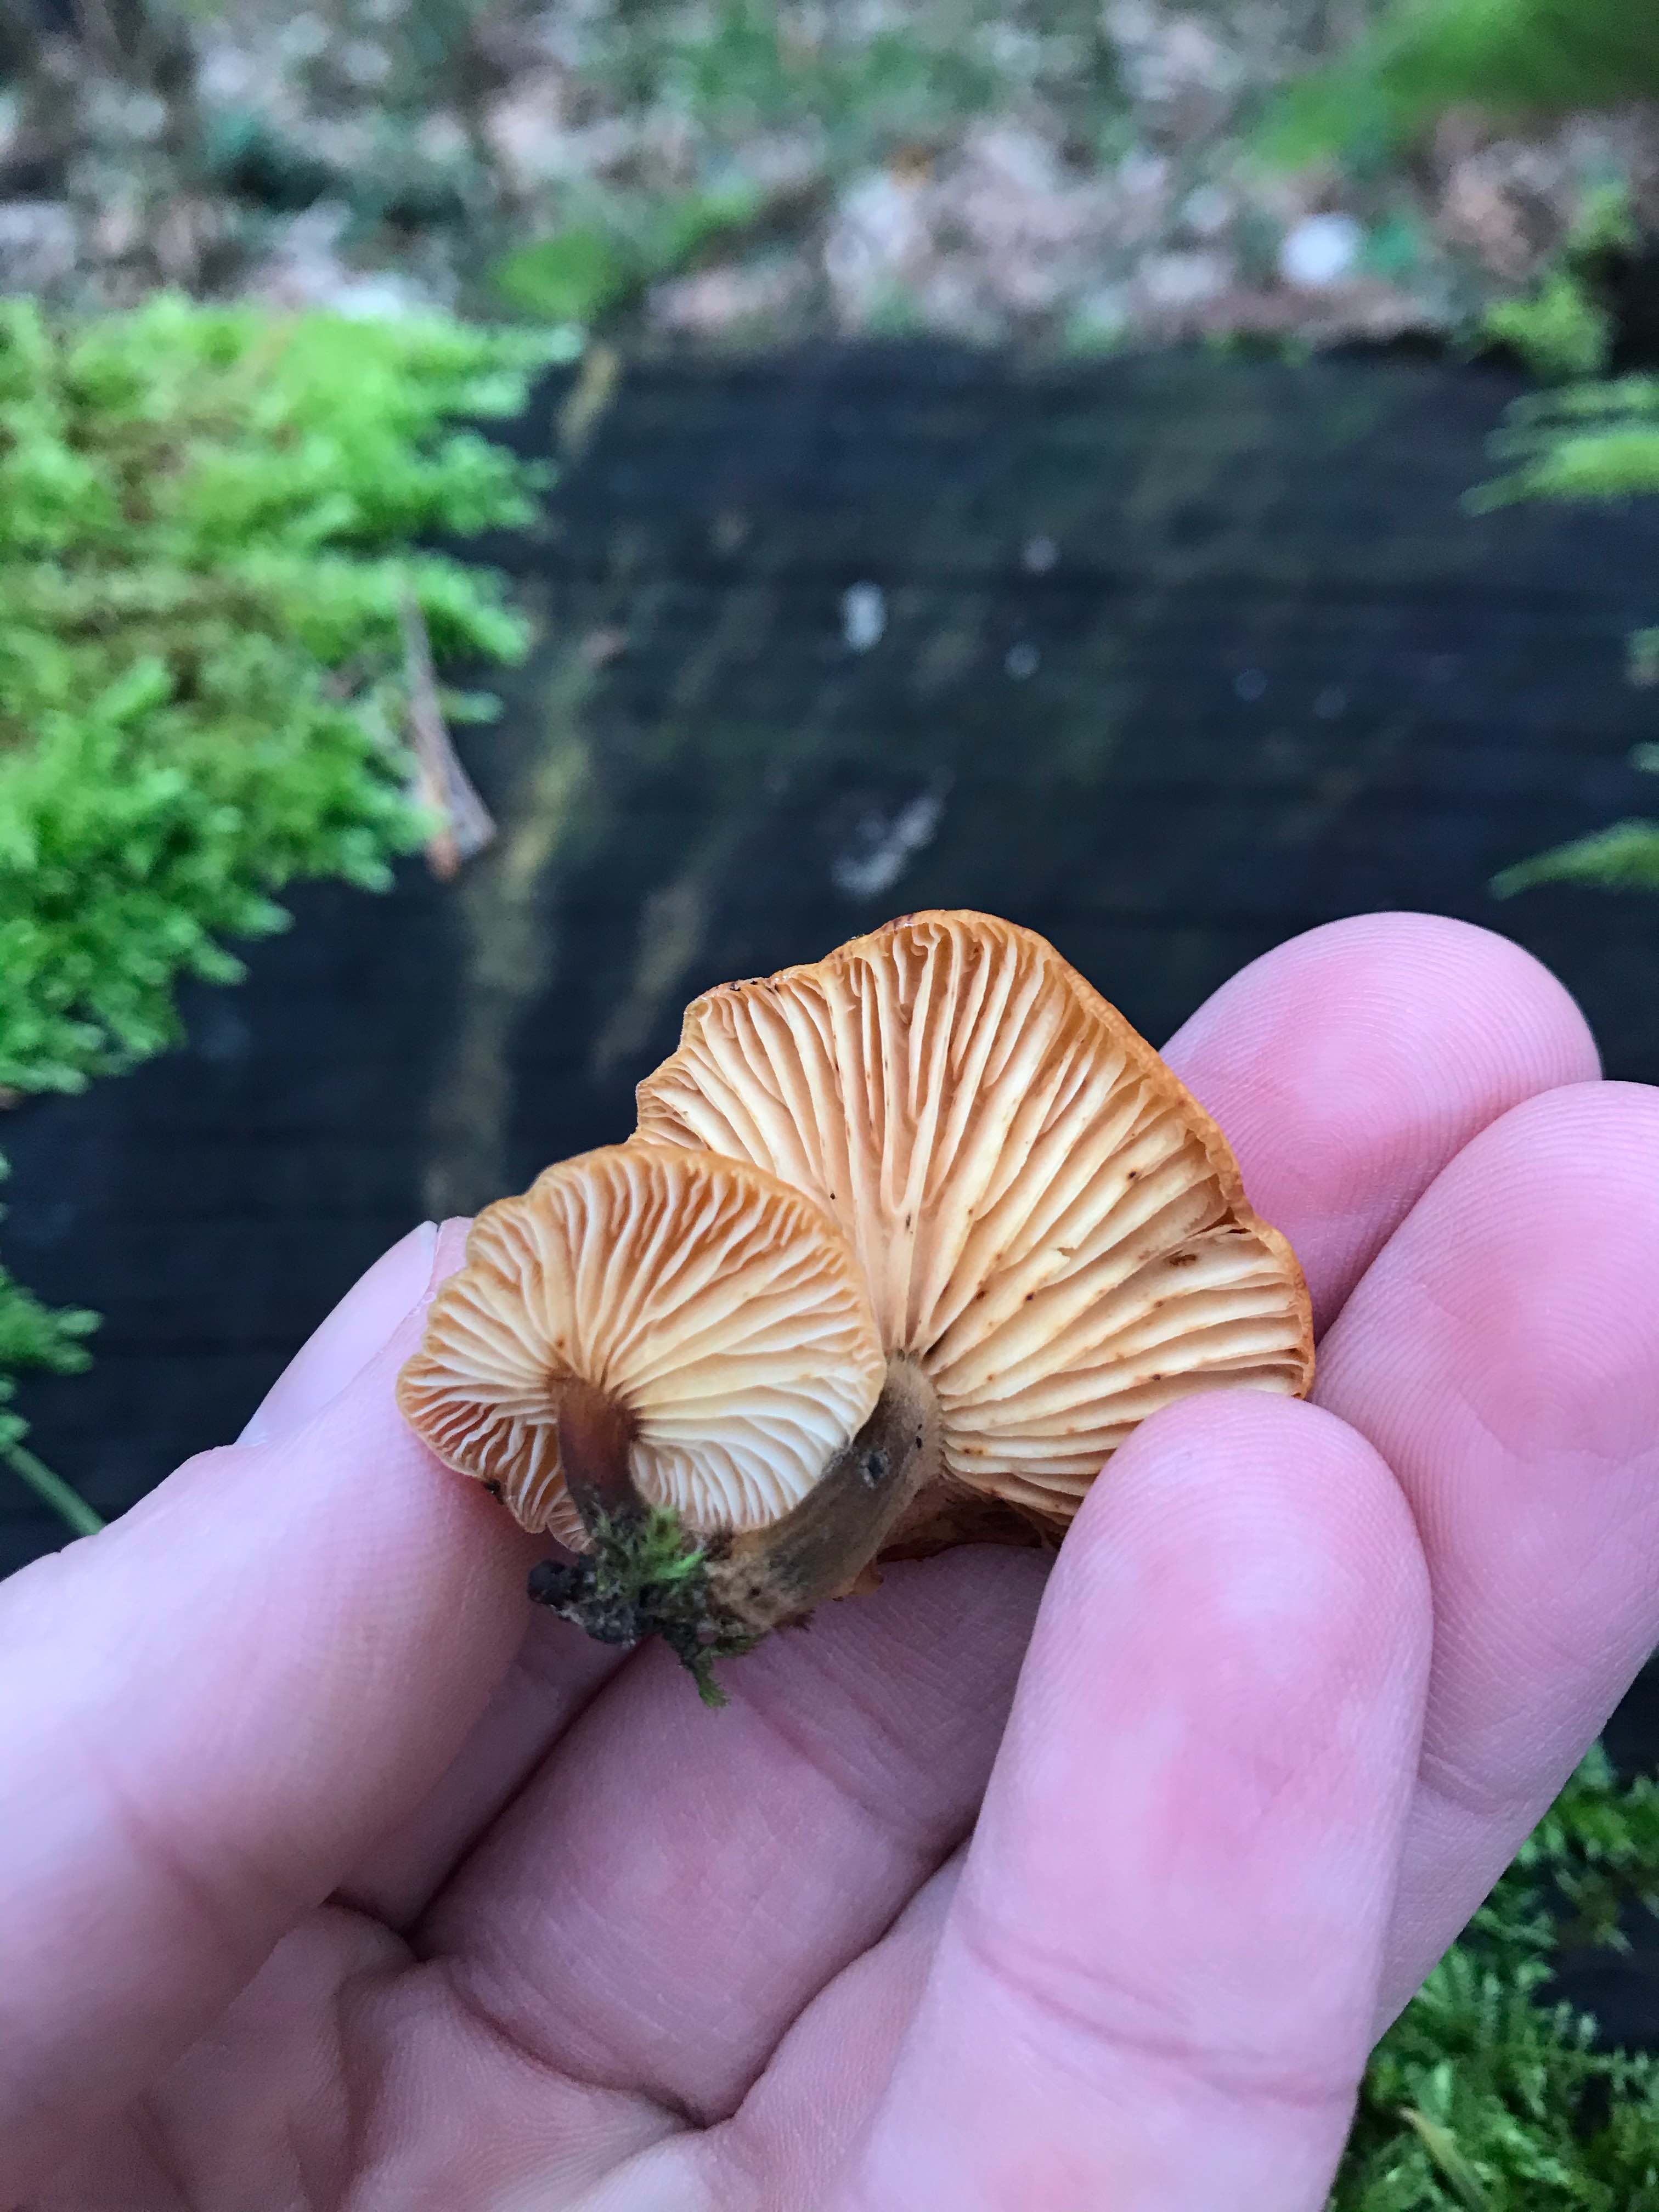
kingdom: Fungi
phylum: Basidiomycota
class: Agaricomycetes
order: Agaricales
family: Physalacriaceae
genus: Flammulina
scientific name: Flammulina velutipes
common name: gul fløjlsfod
